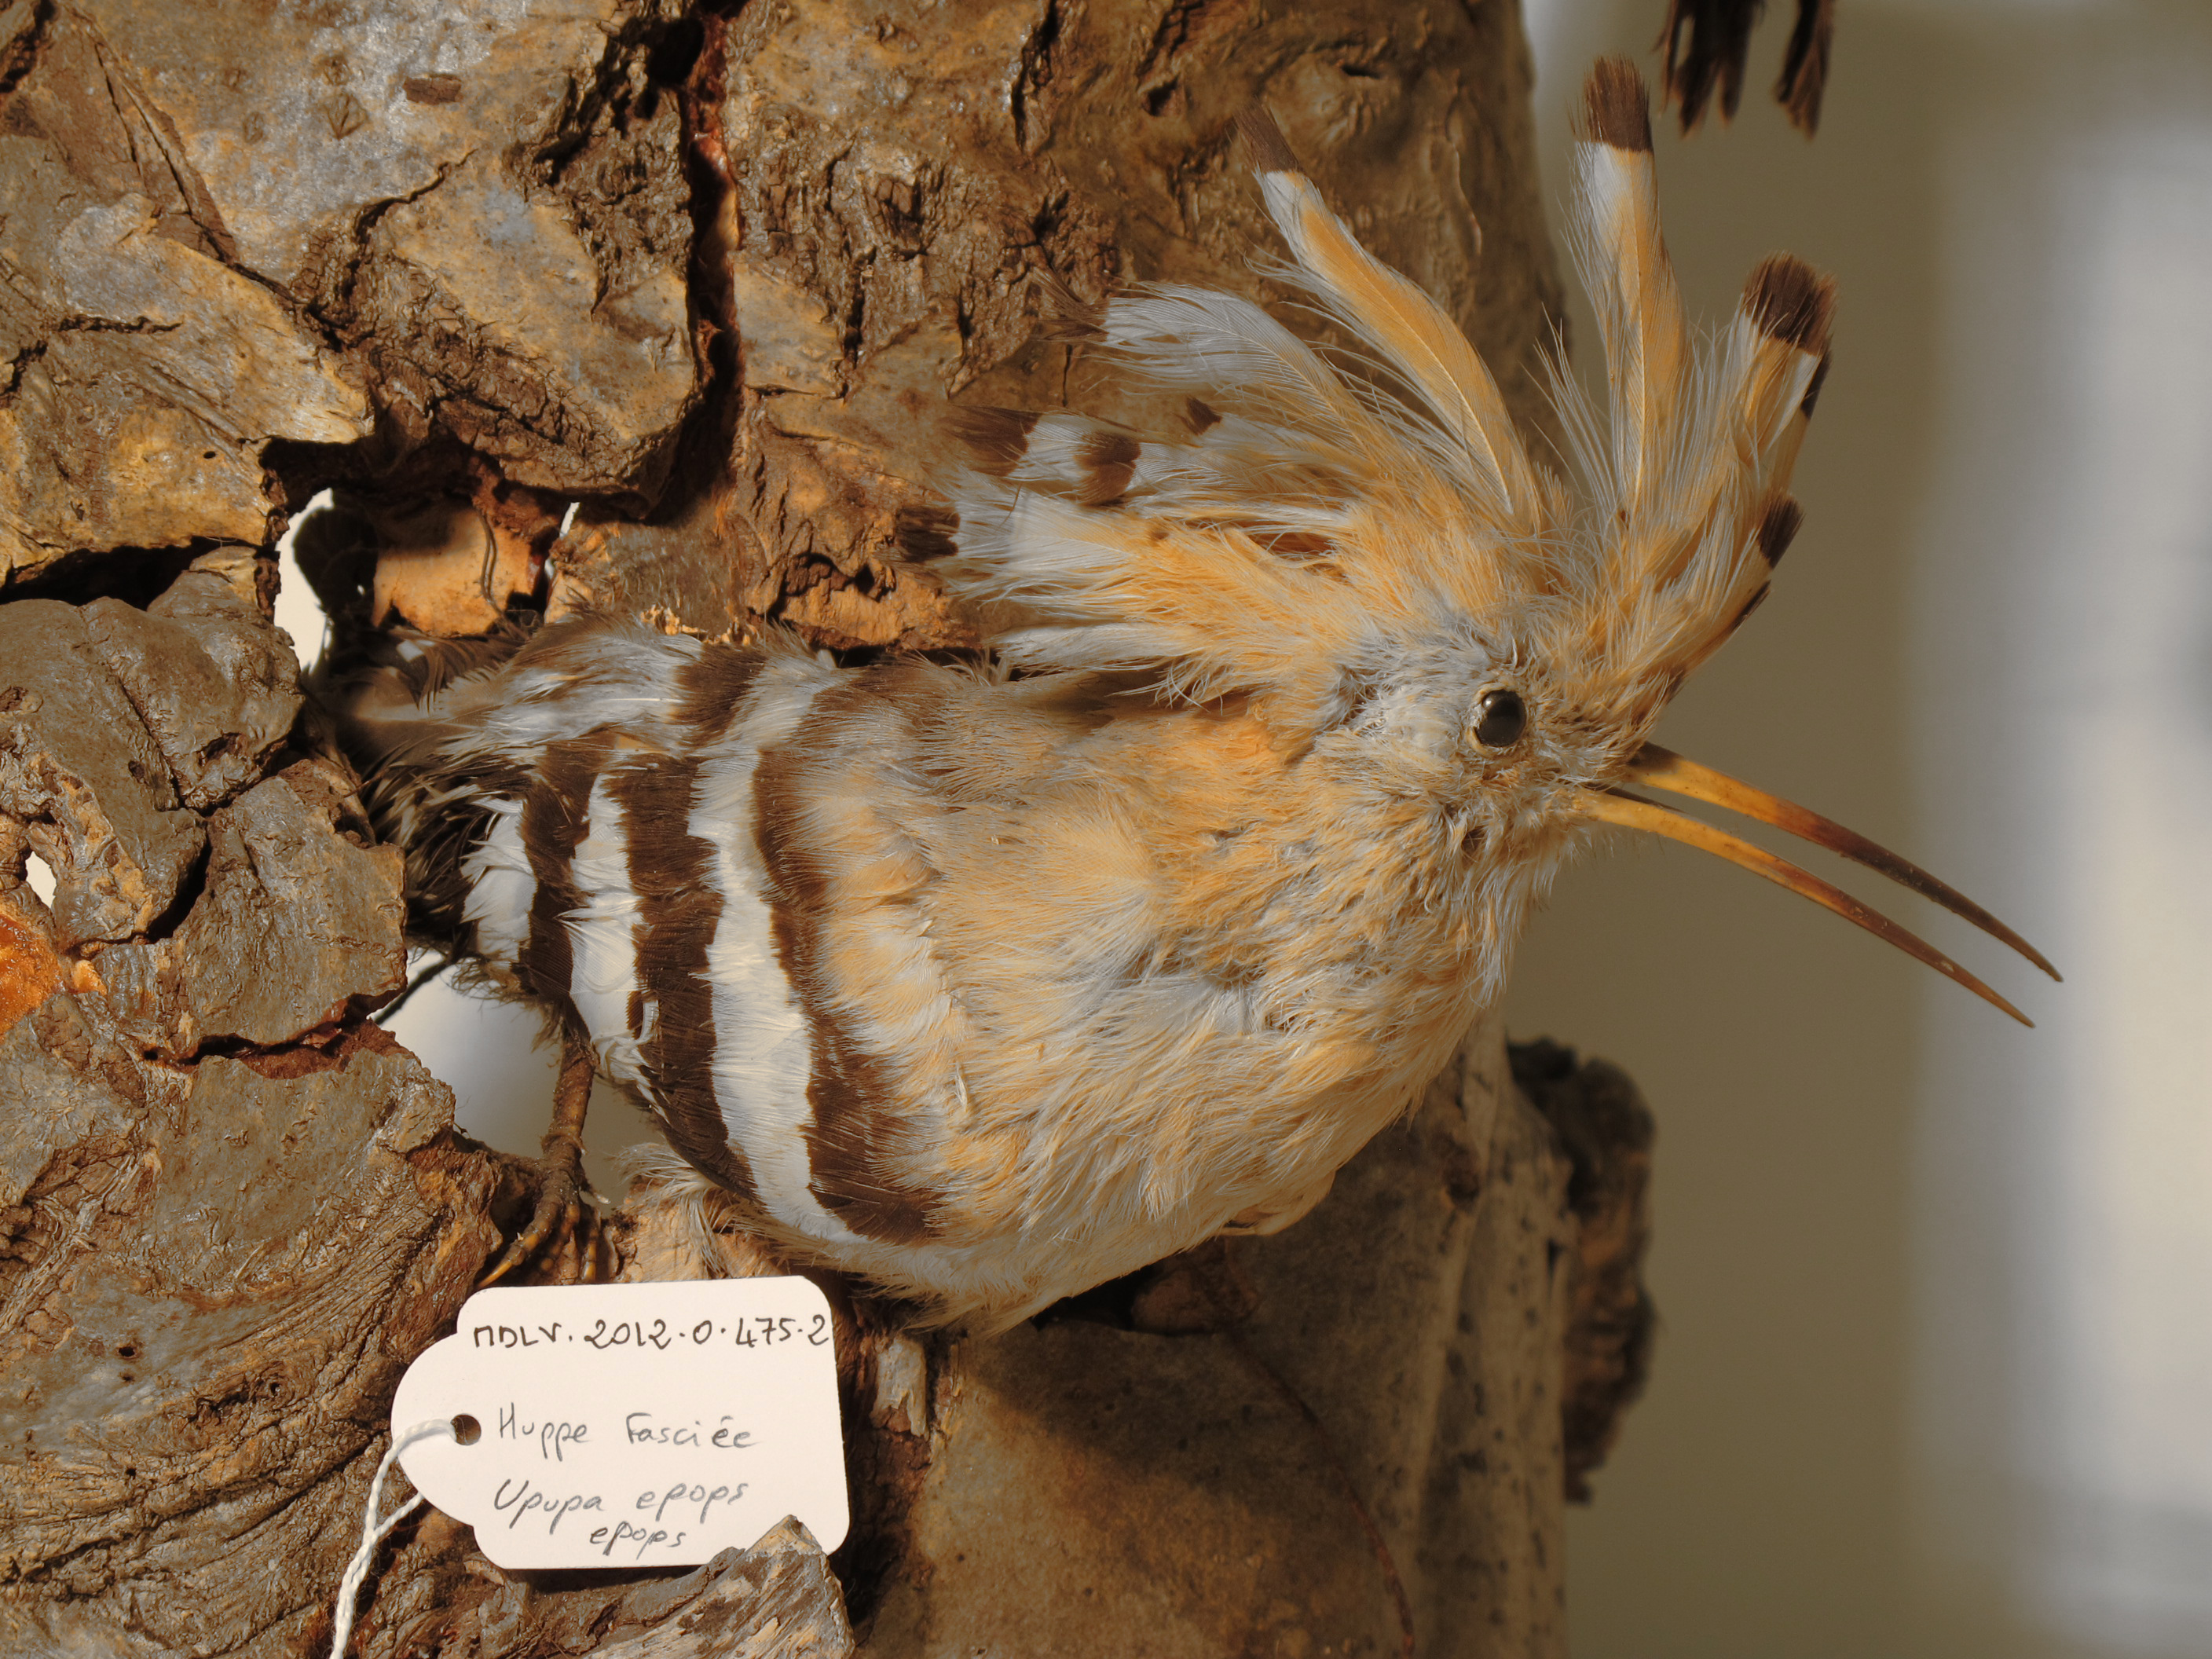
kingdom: Animalia
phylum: Chordata
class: Aves
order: Bucerotiformes
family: Upupidae
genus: Upupa
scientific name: Upupa epops
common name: Hoopoe
